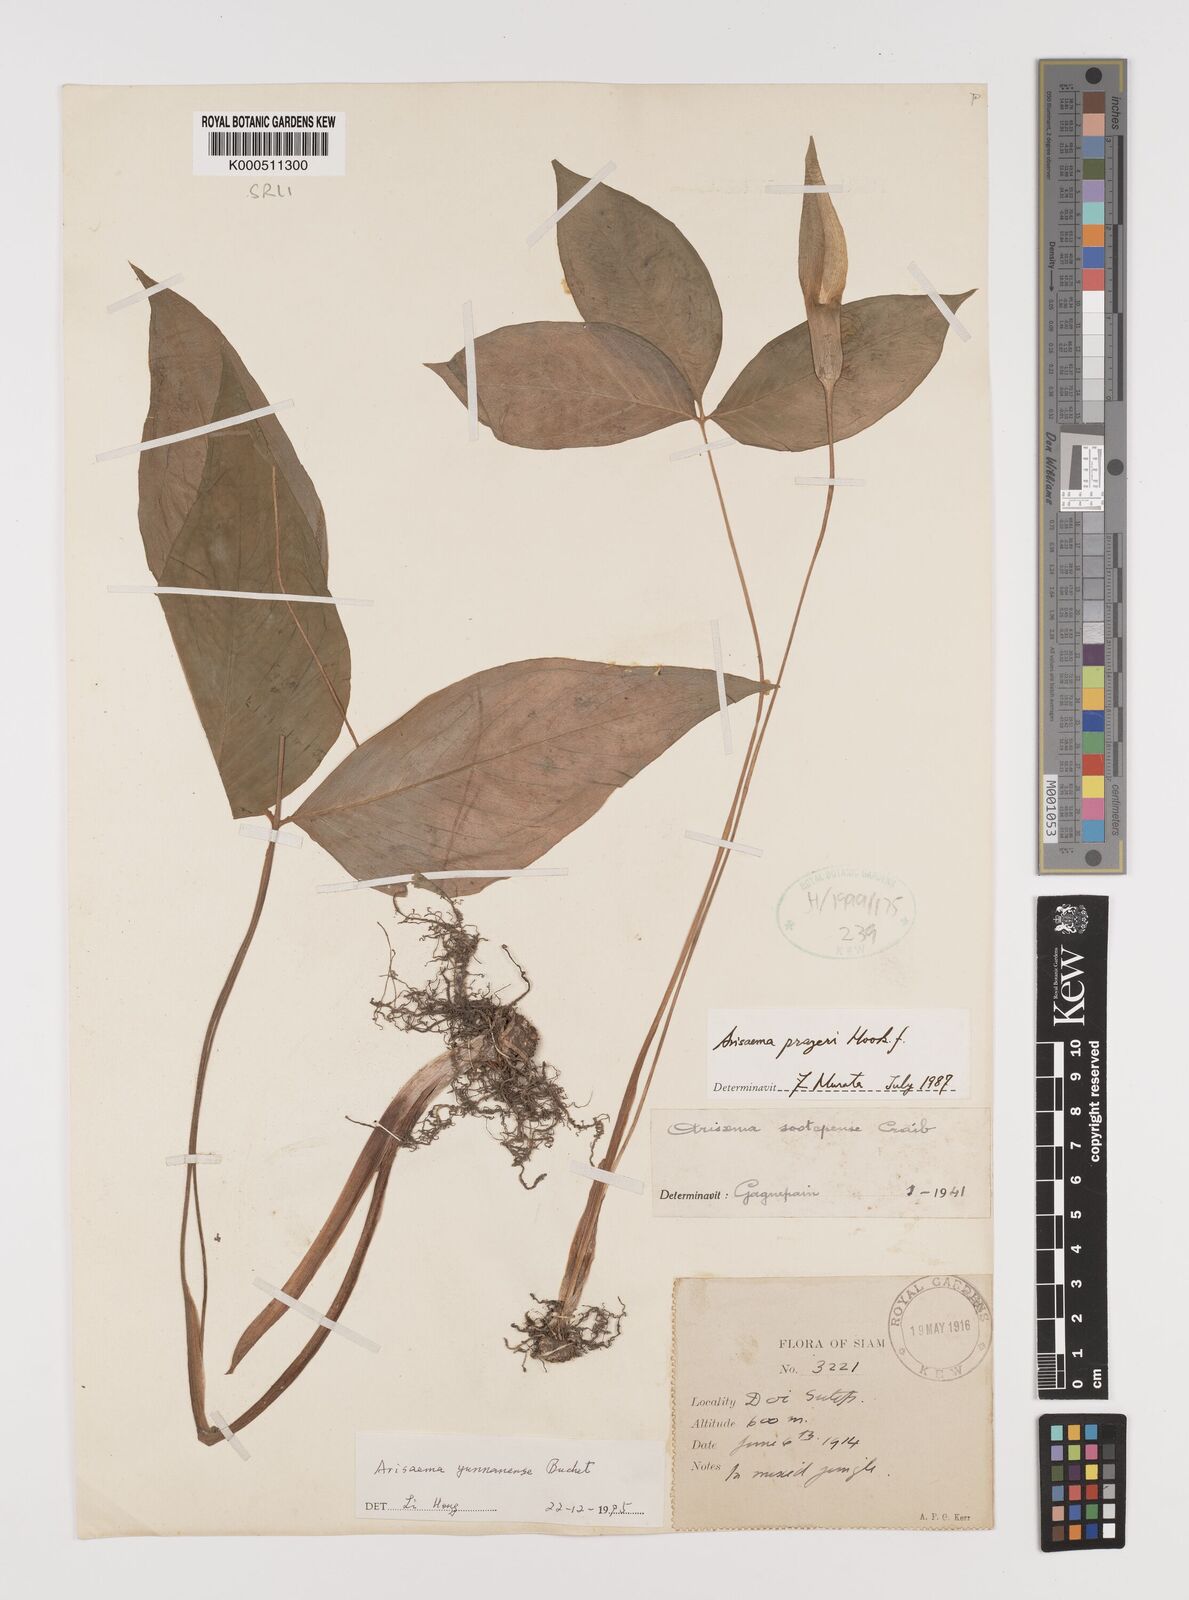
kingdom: Plantae
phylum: Tracheophyta
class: Liliopsida
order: Alismatales
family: Araceae
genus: Arisaema
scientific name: Arisaema yunnanense
